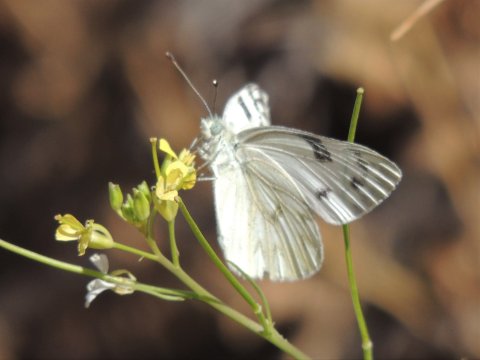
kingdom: Animalia
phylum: Arthropoda
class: Insecta
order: Lepidoptera
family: Pieridae
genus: Pontia
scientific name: Pontia occidentalis
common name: Western White
